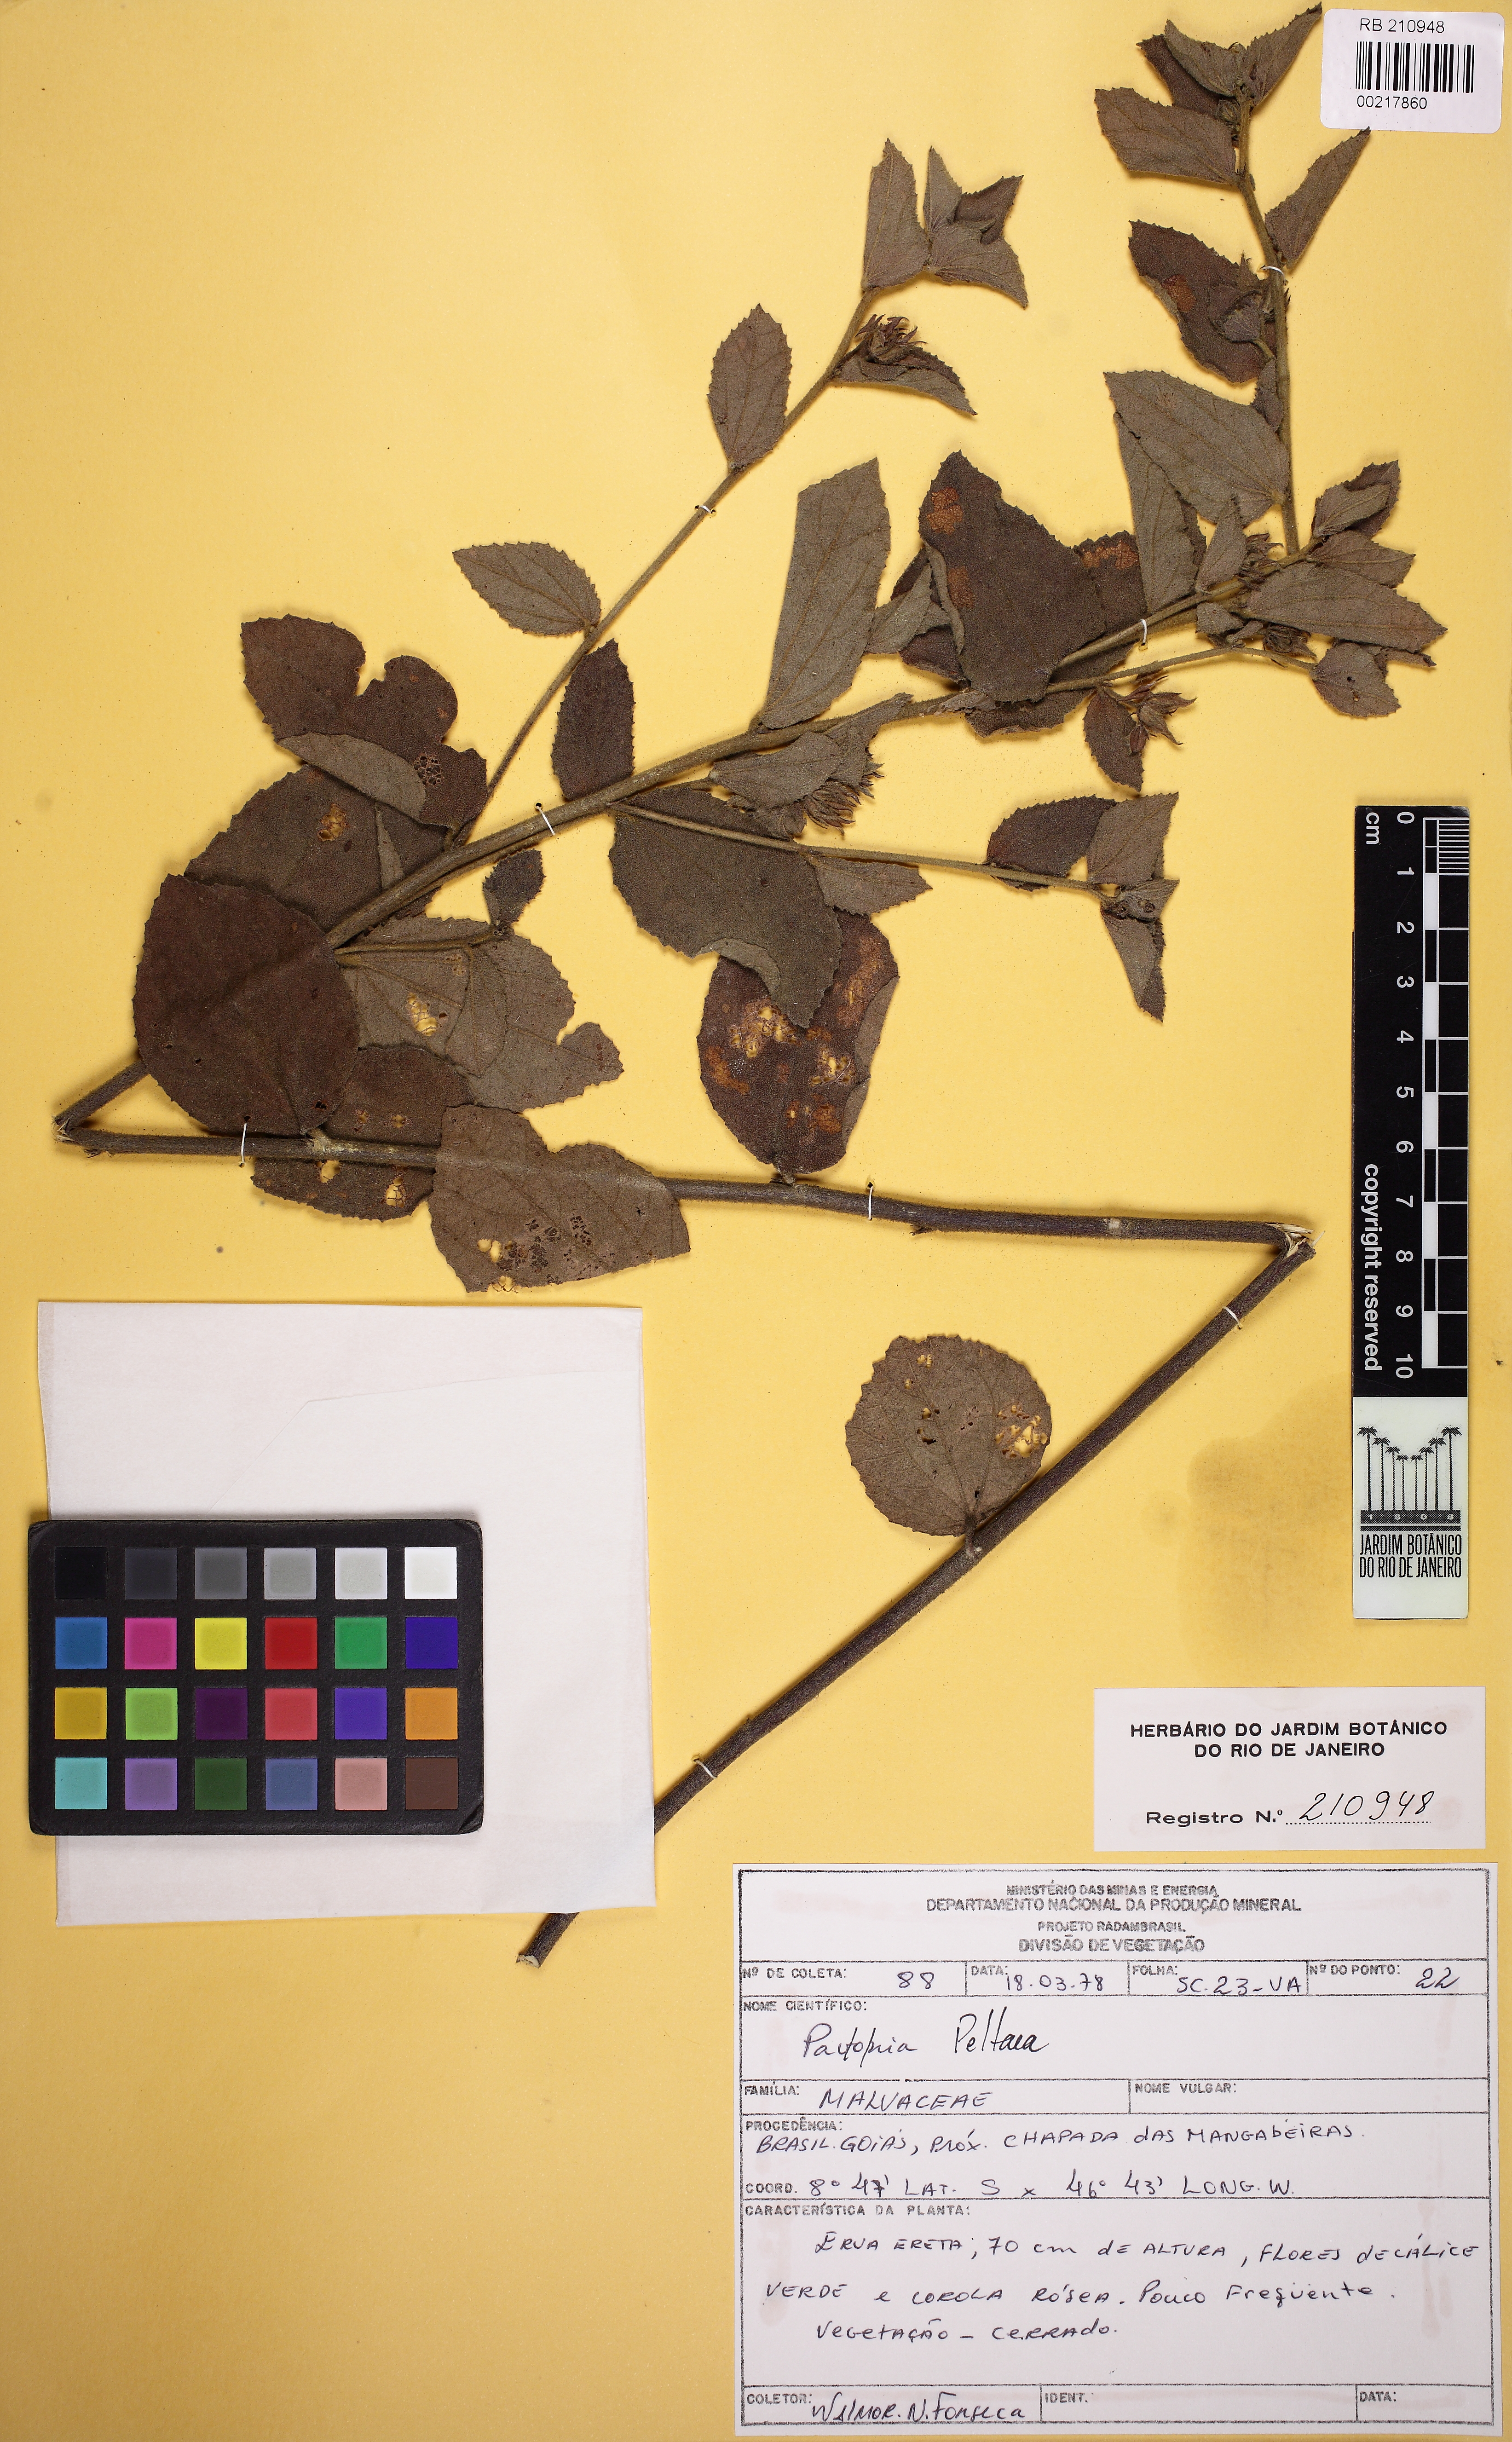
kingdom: Plantae
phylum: Tracheophyta
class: Magnoliopsida
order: Malvales
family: Malvaceae
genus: Peltaea
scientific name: Peltaea speciosa
